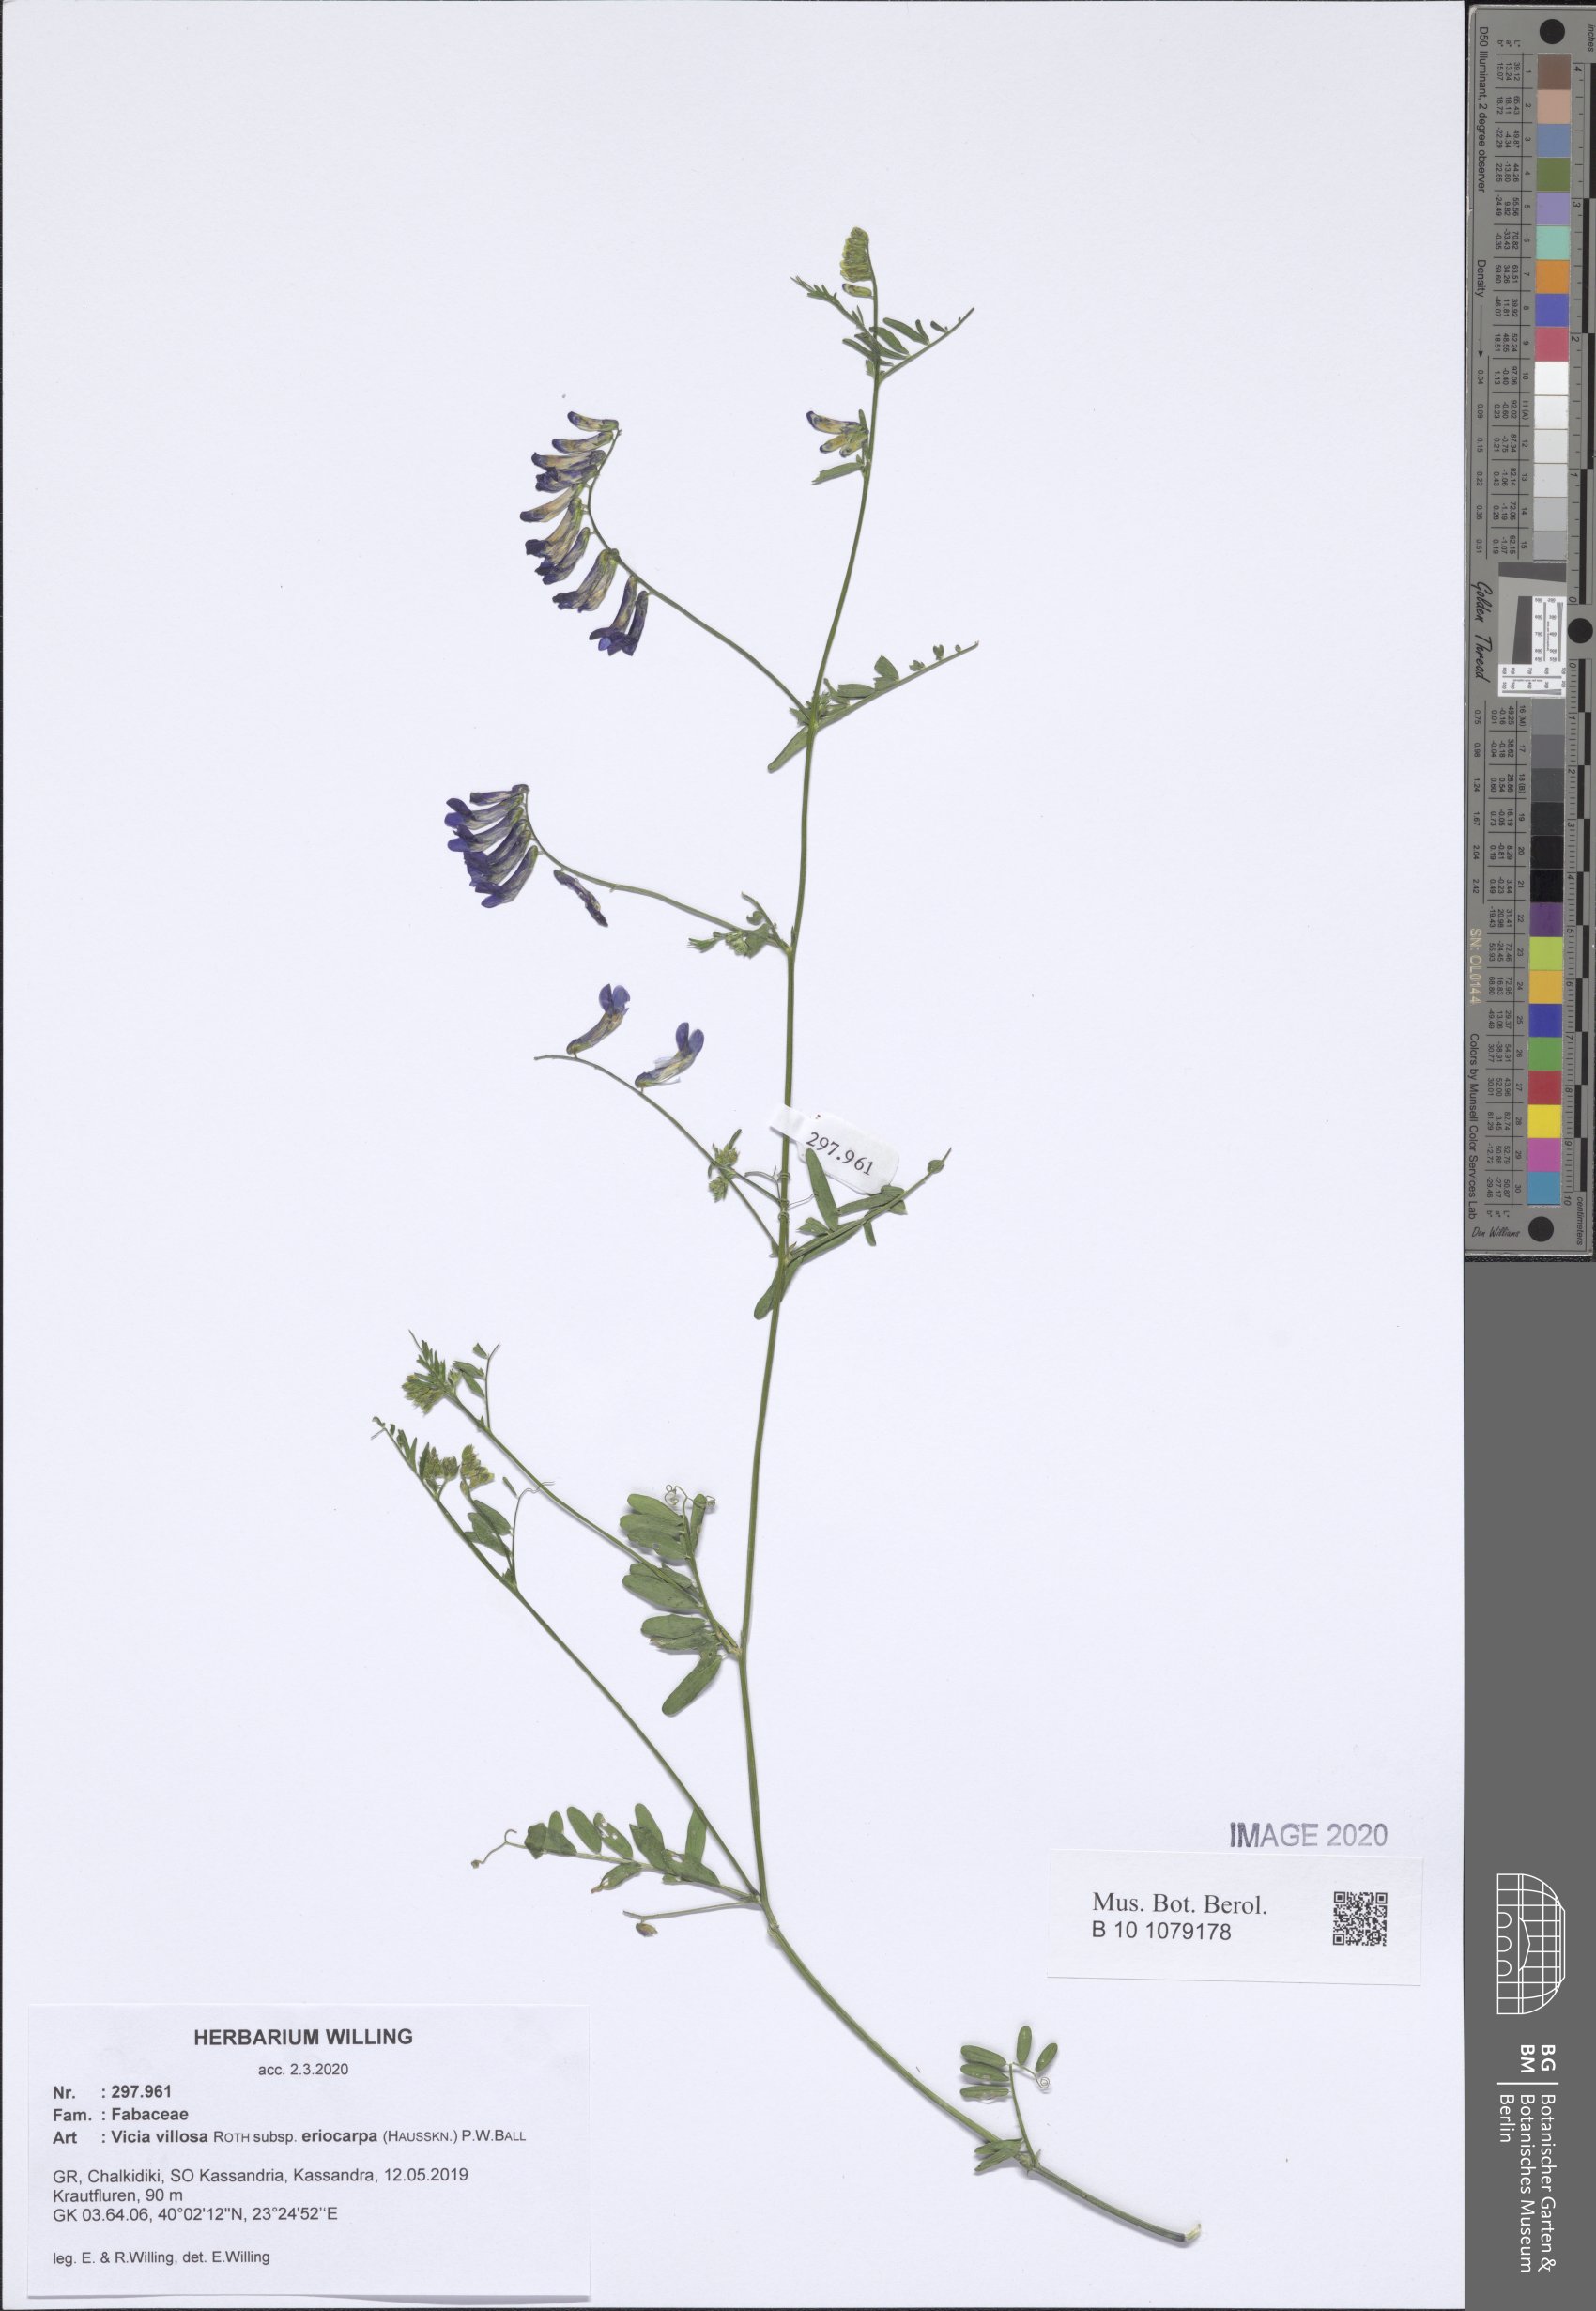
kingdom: Plantae
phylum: Tracheophyta
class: Magnoliopsida
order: Fabales
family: Fabaceae
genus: Vicia
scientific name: Vicia eriocarpa
